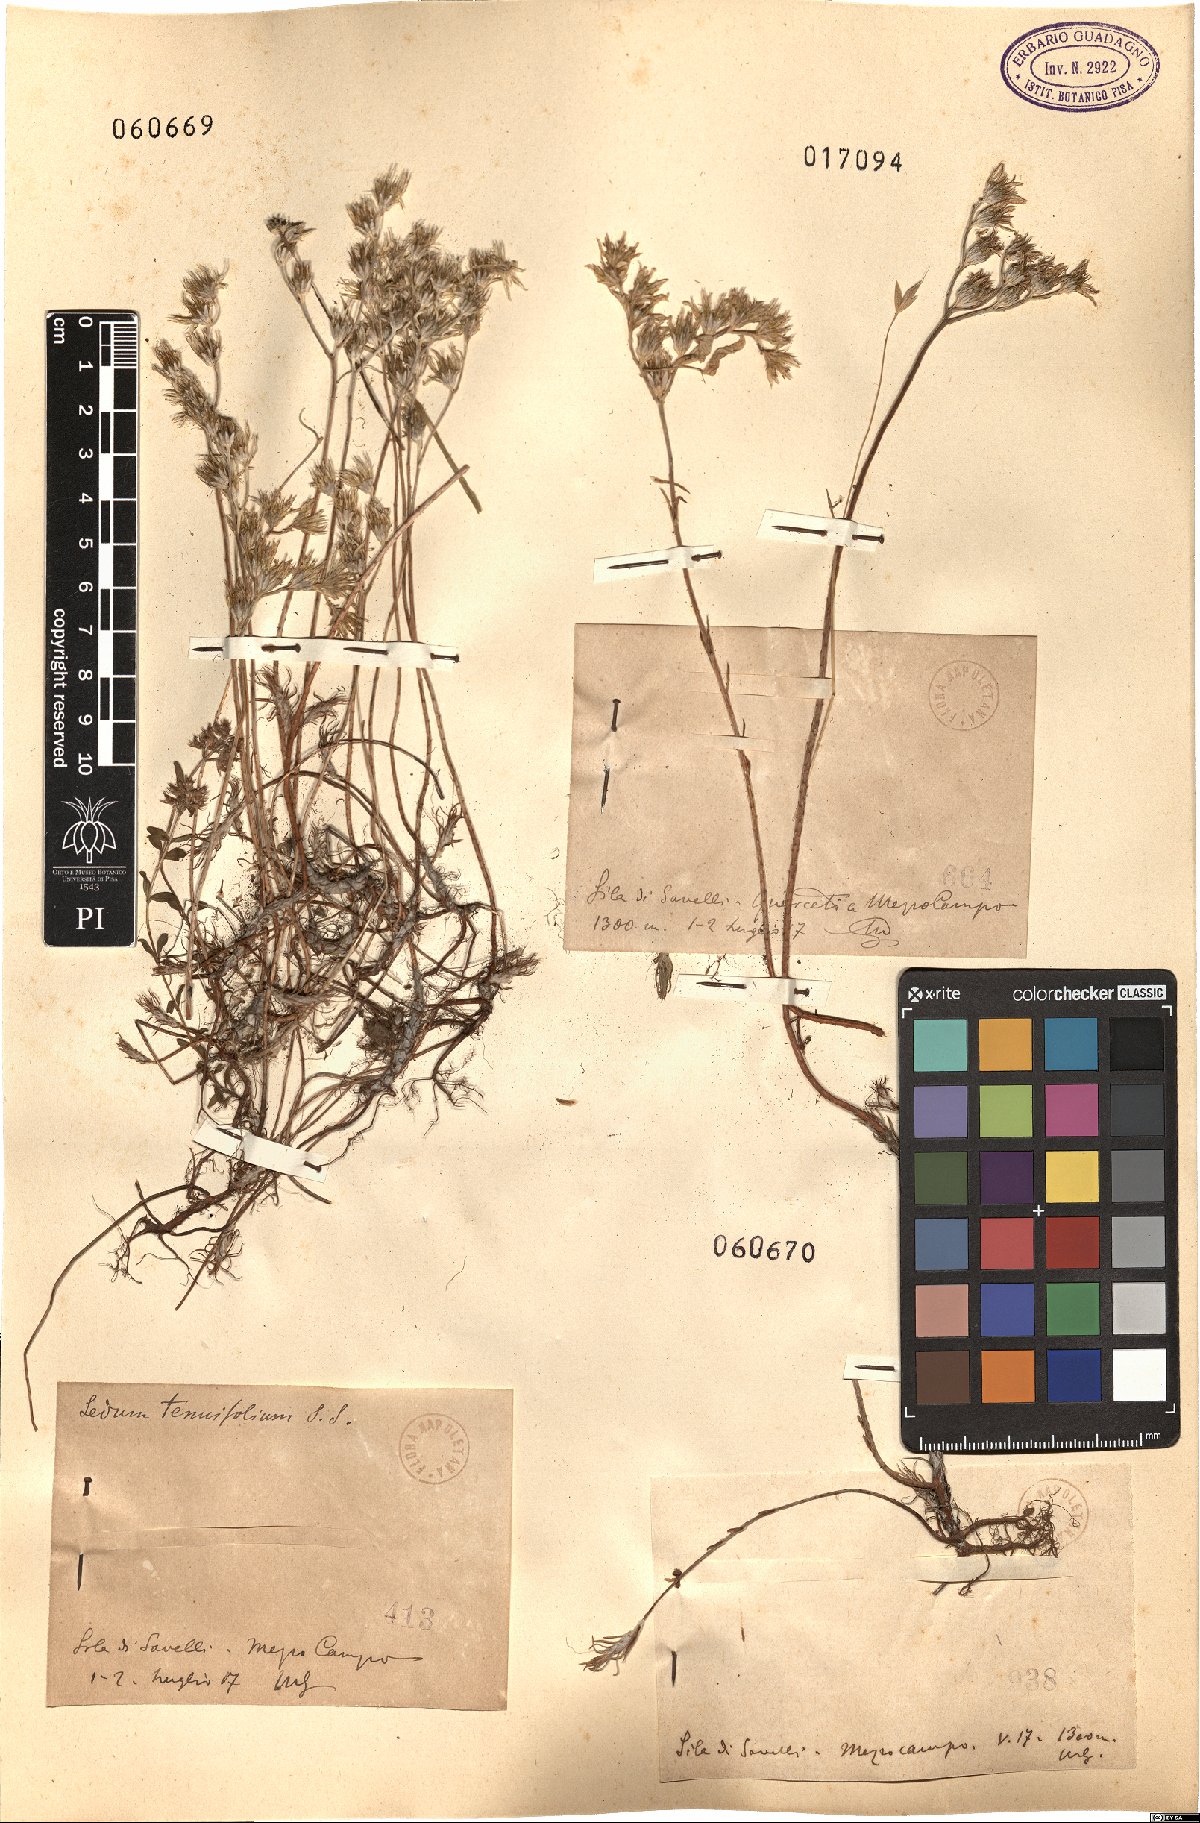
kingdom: Plantae
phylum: Tracheophyta
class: Magnoliopsida
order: Saxifragales
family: Crassulaceae
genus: Petrosedum
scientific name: Petrosedum tenuifolium
